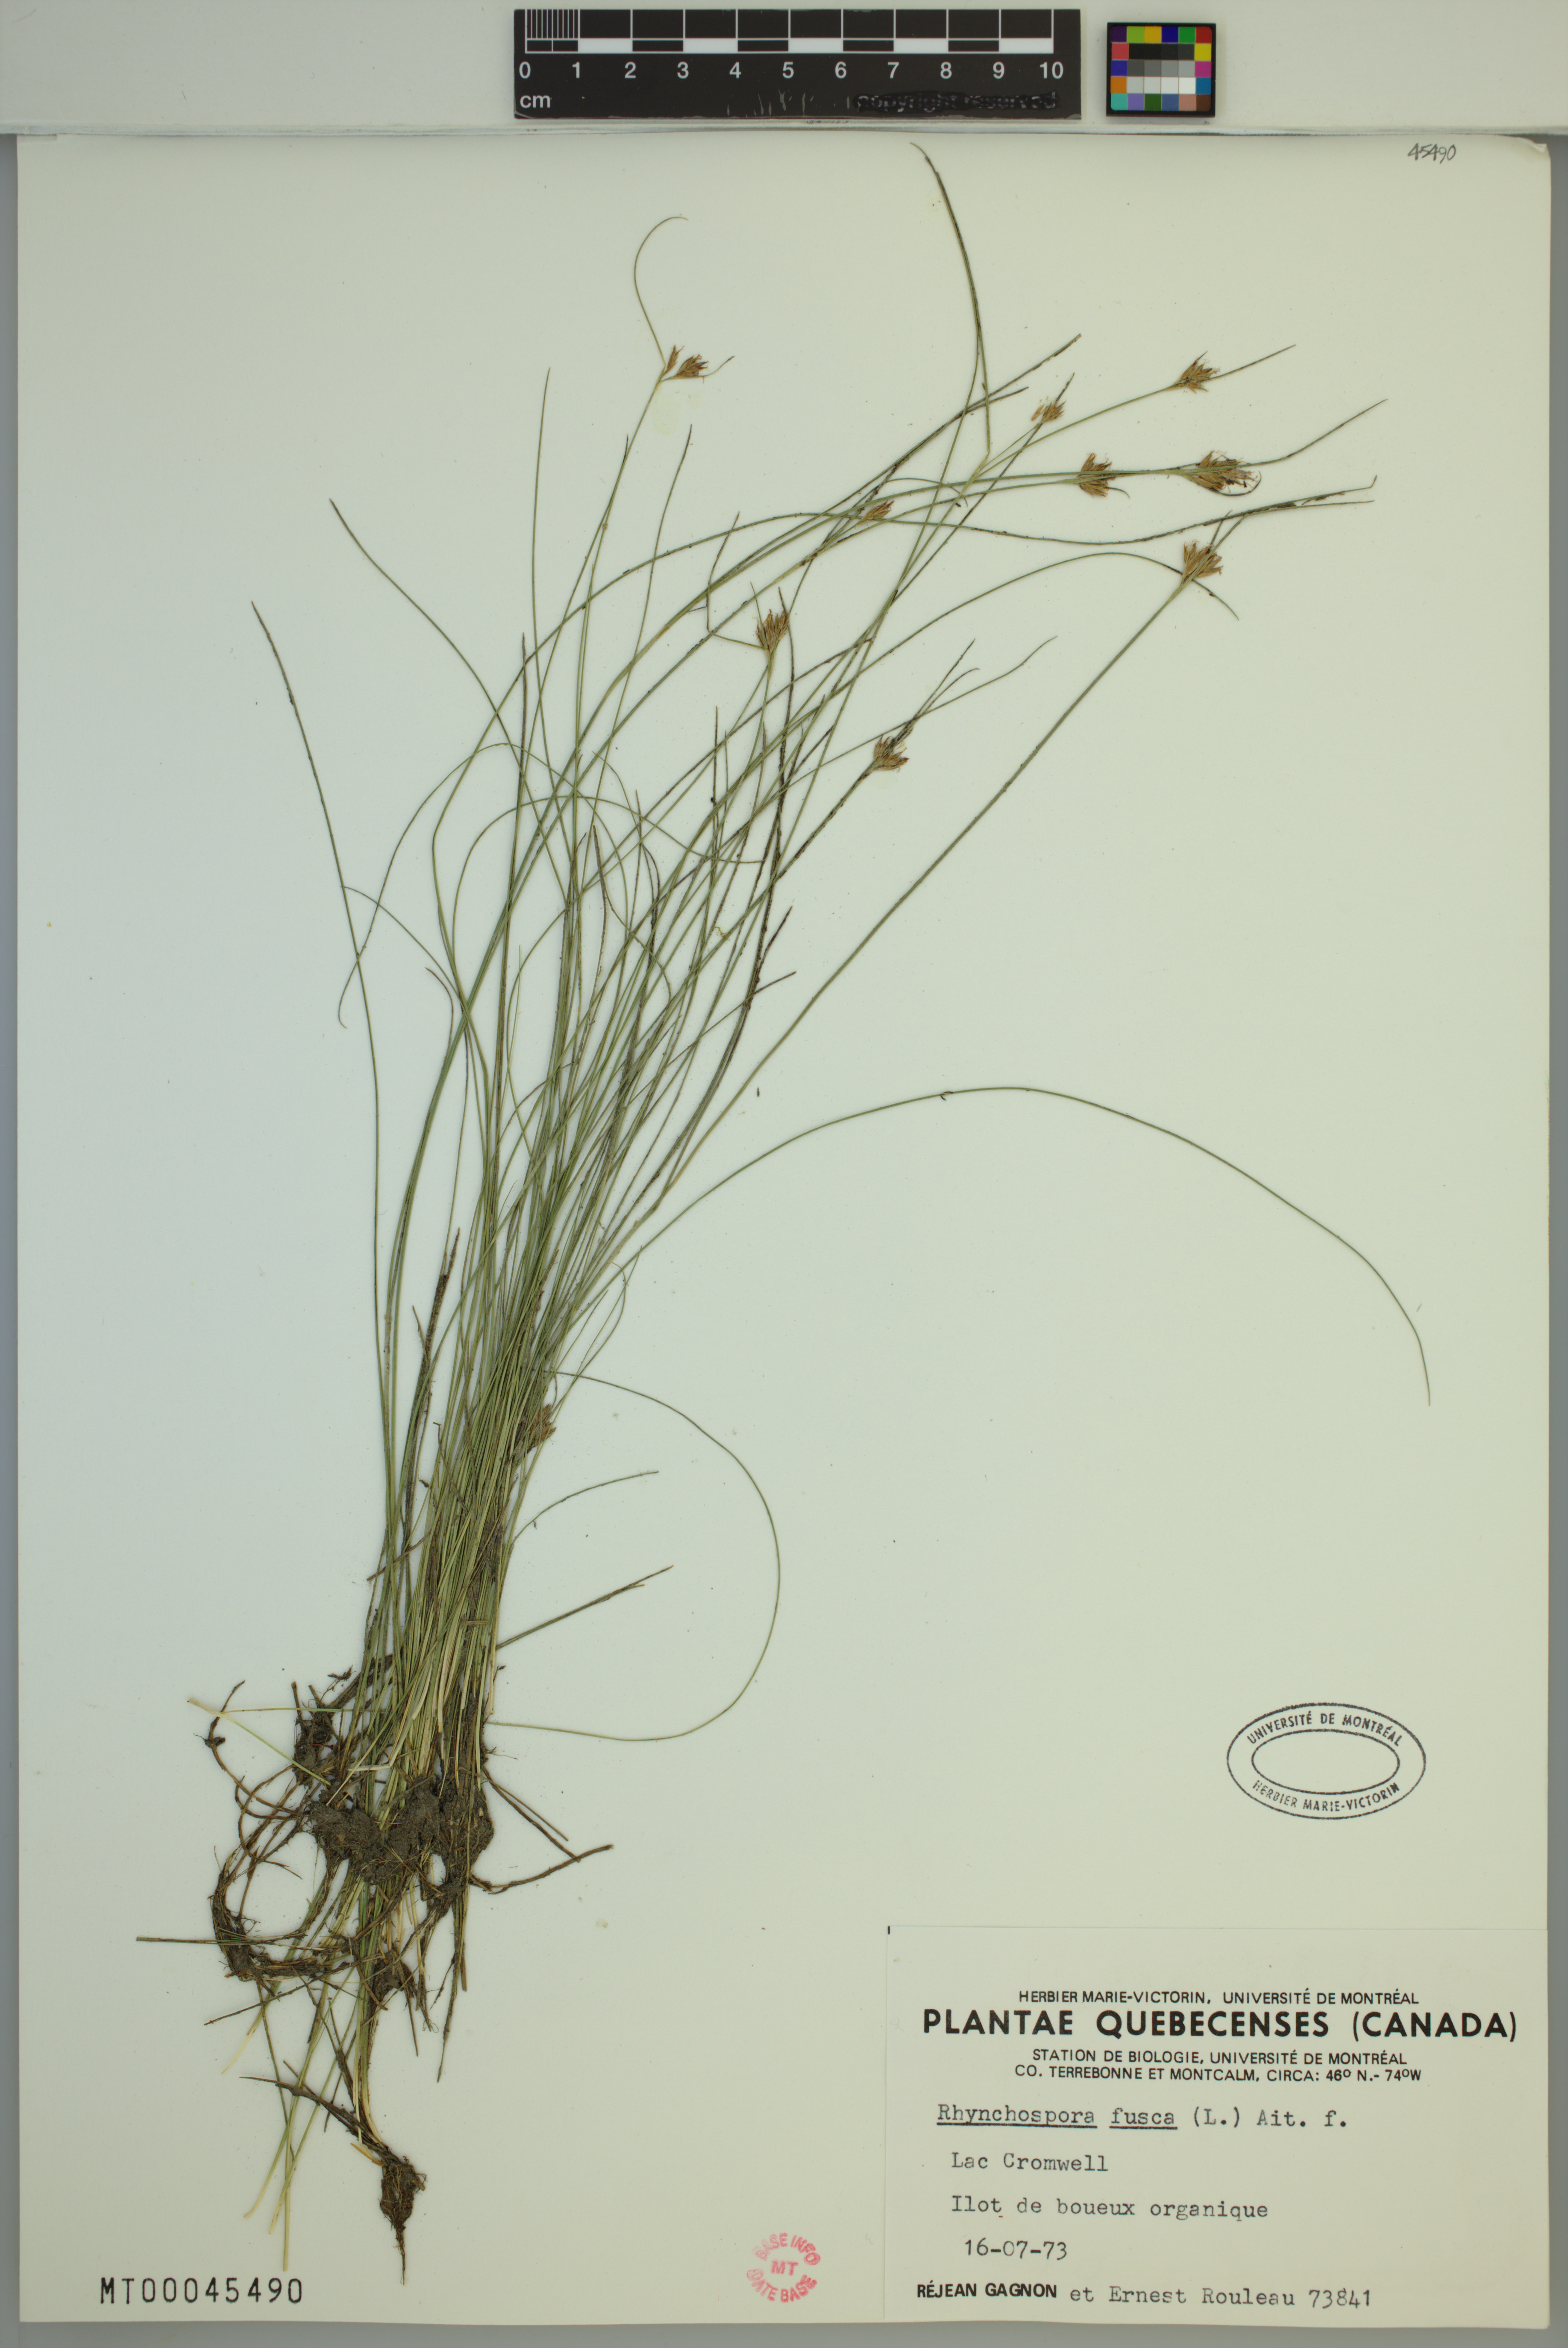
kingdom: Plantae
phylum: Tracheophyta
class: Liliopsida
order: Poales
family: Cyperaceae
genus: Rhynchospora
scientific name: Rhynchospora fusca
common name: Brown beak-sedge
